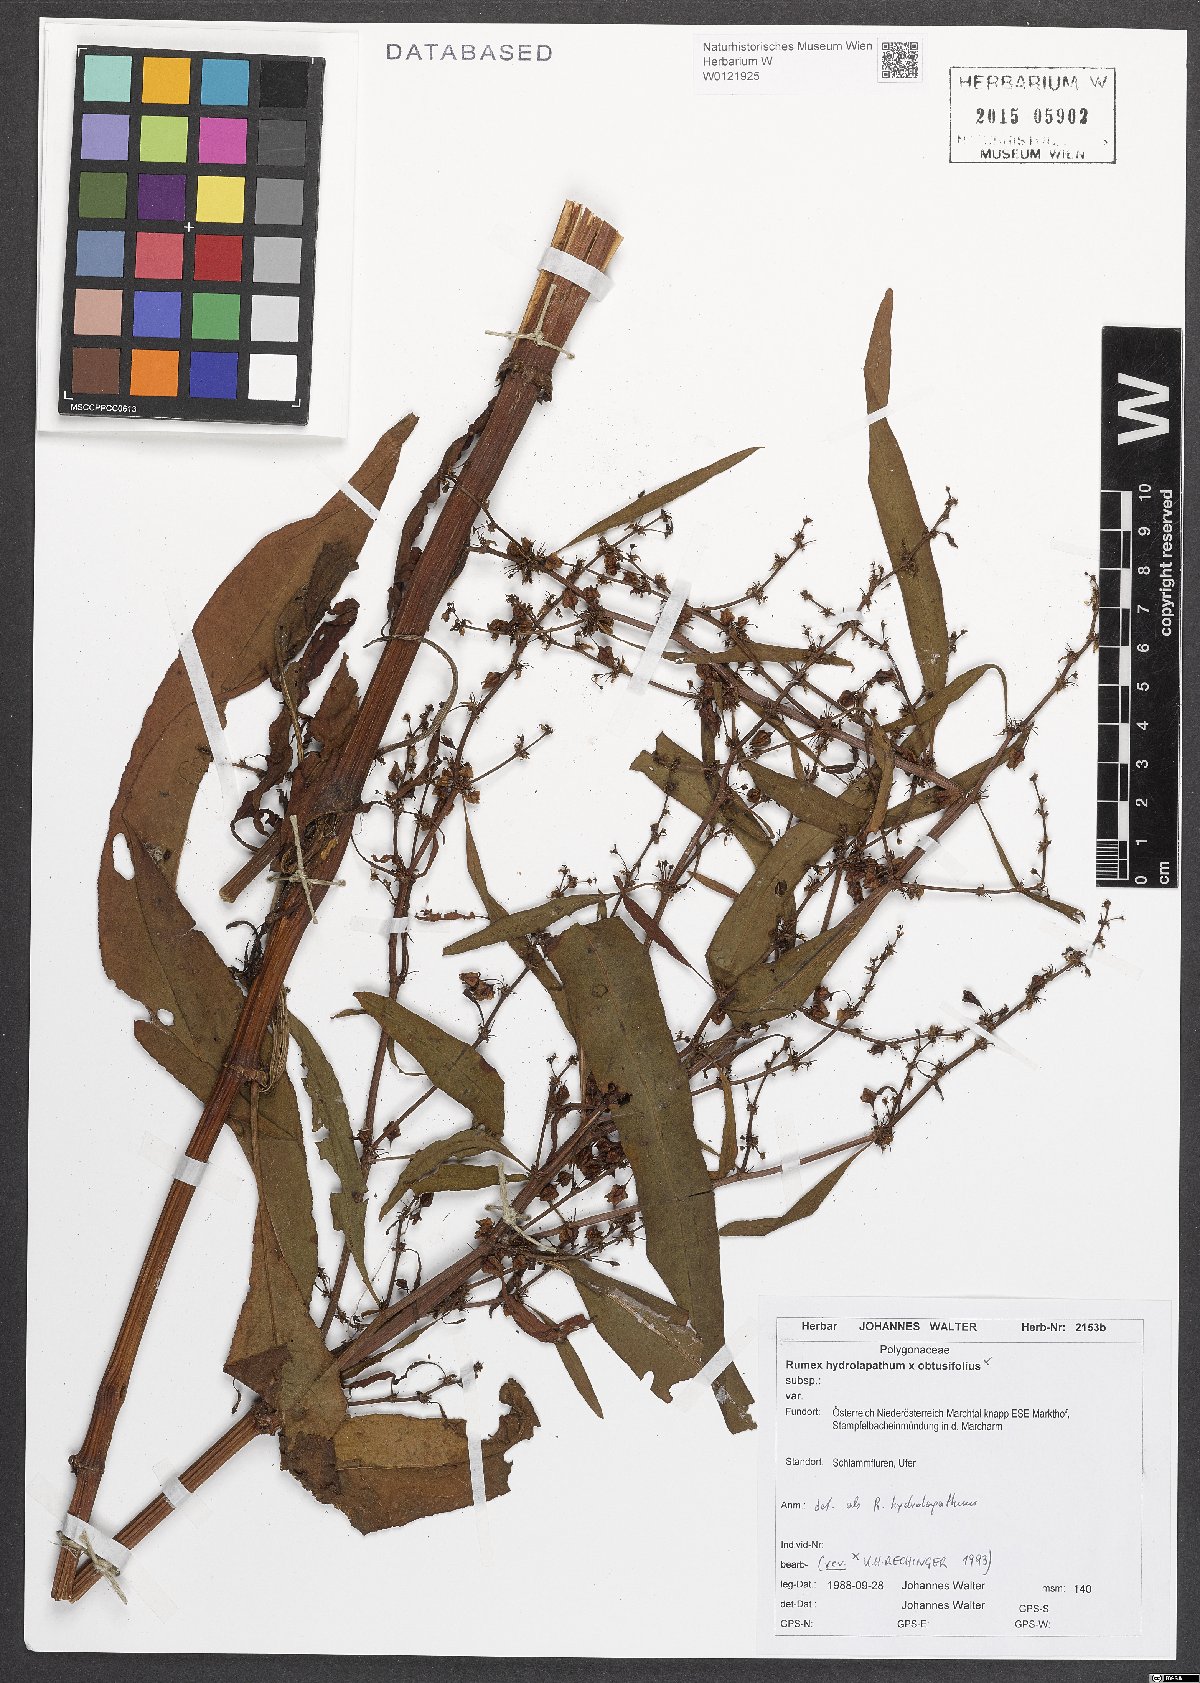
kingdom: Plantae
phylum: Tracheophyta
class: Magnoliopsida
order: Caryophyllales
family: Polygonaceae
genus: Rumex
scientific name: Rumex hydrolapathum
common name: Water dock
